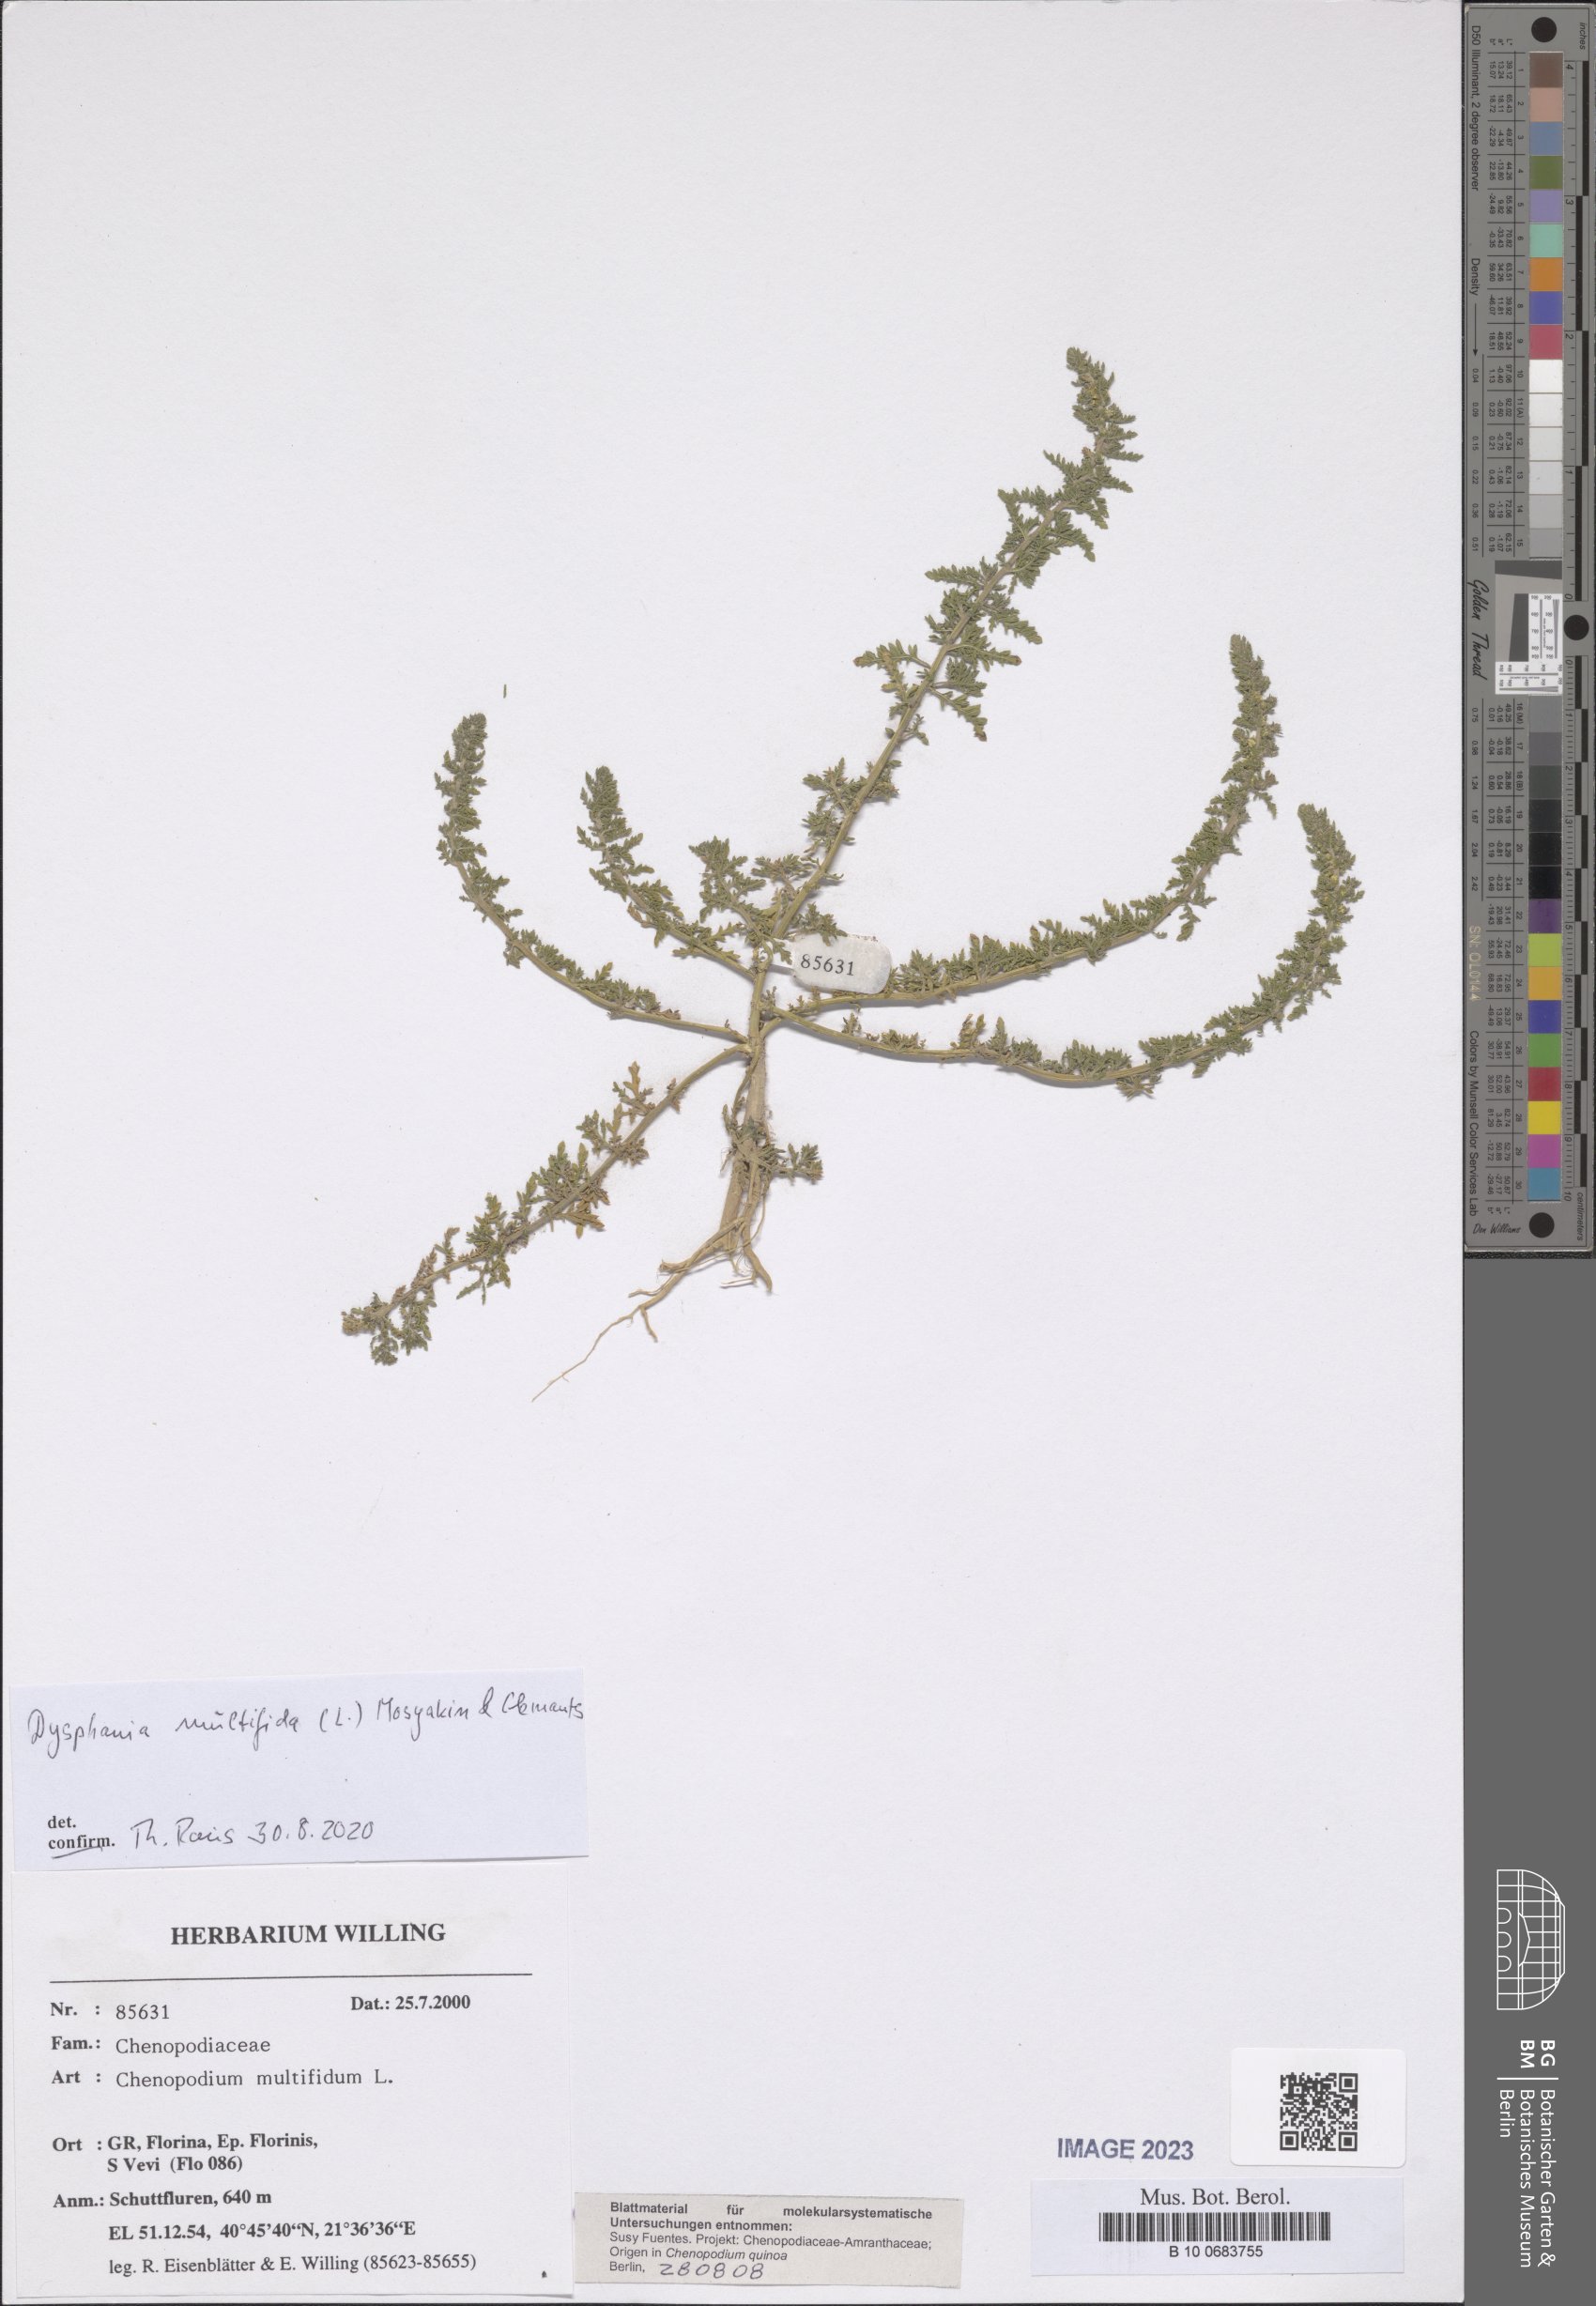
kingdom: Plantae
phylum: Tracheophyta
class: Magnoliopsida
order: Caryophyllales
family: Amaranthaceae
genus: Dysphania
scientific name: Dysphania multifida
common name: Cutleaf goosefoot
